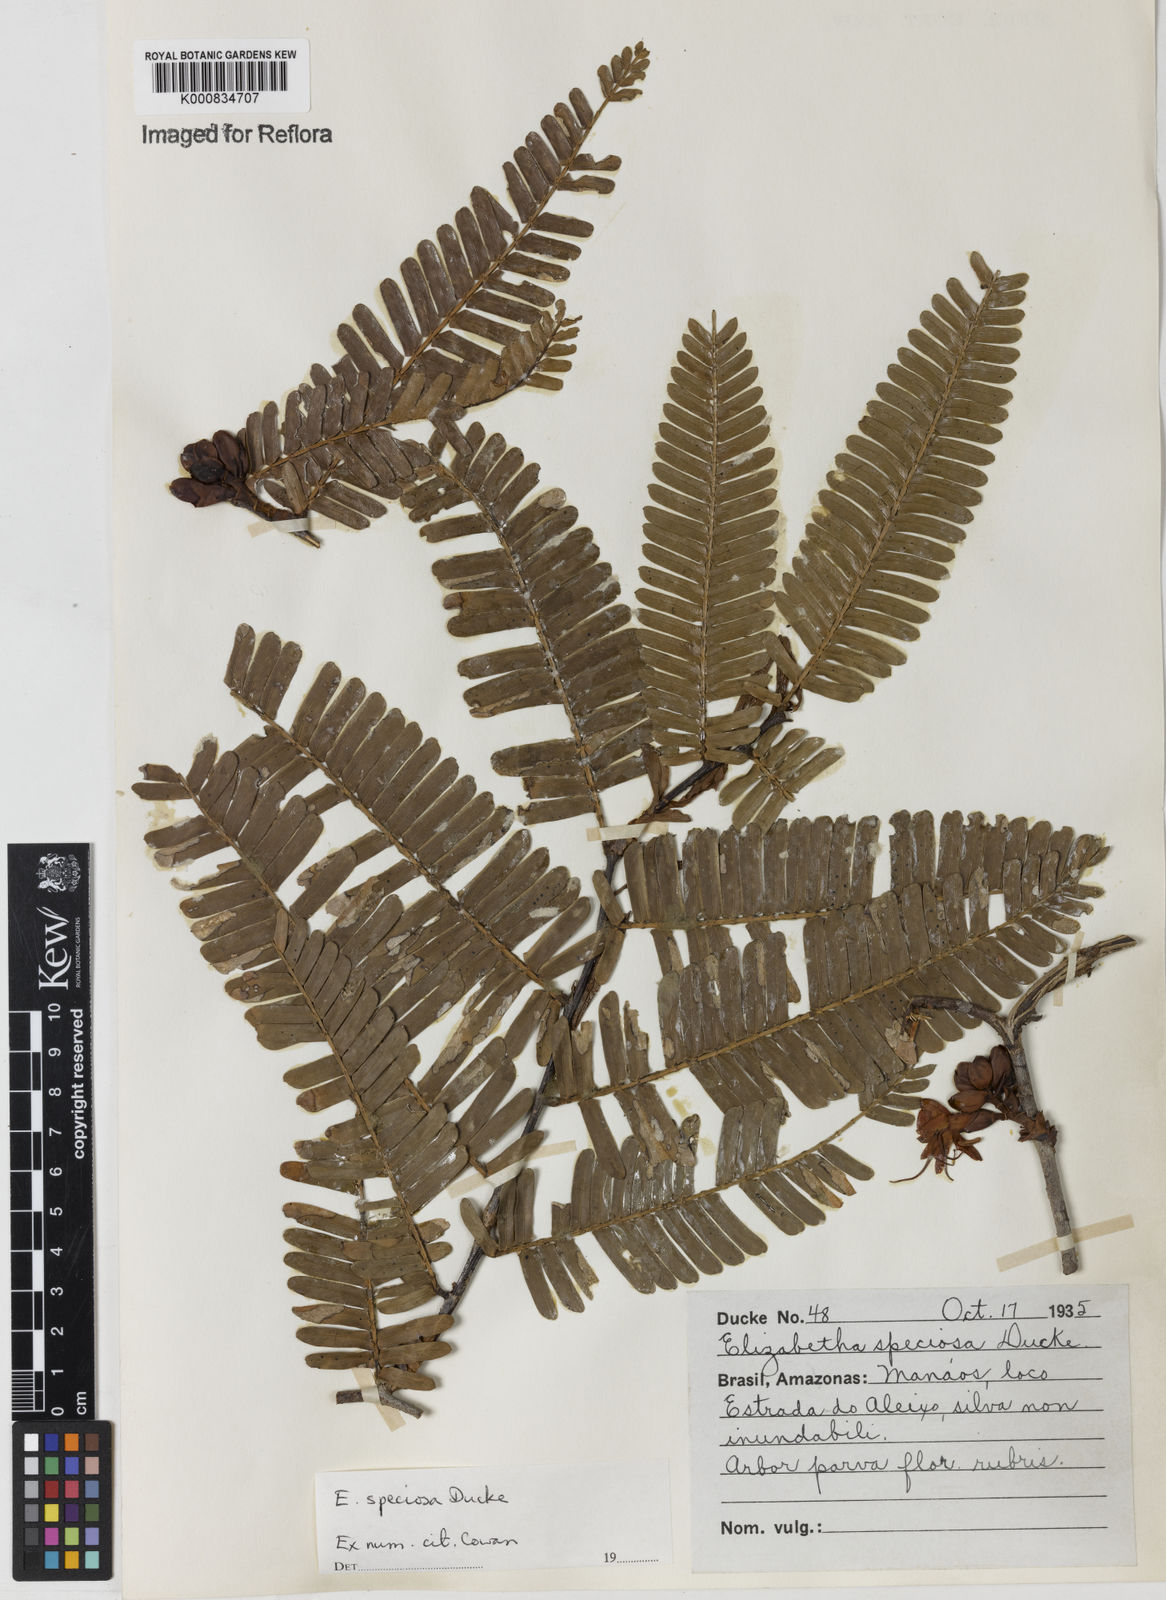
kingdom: Plantae
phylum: Tracheophyta
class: Magnoliopsida
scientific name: Magnoliopsida
